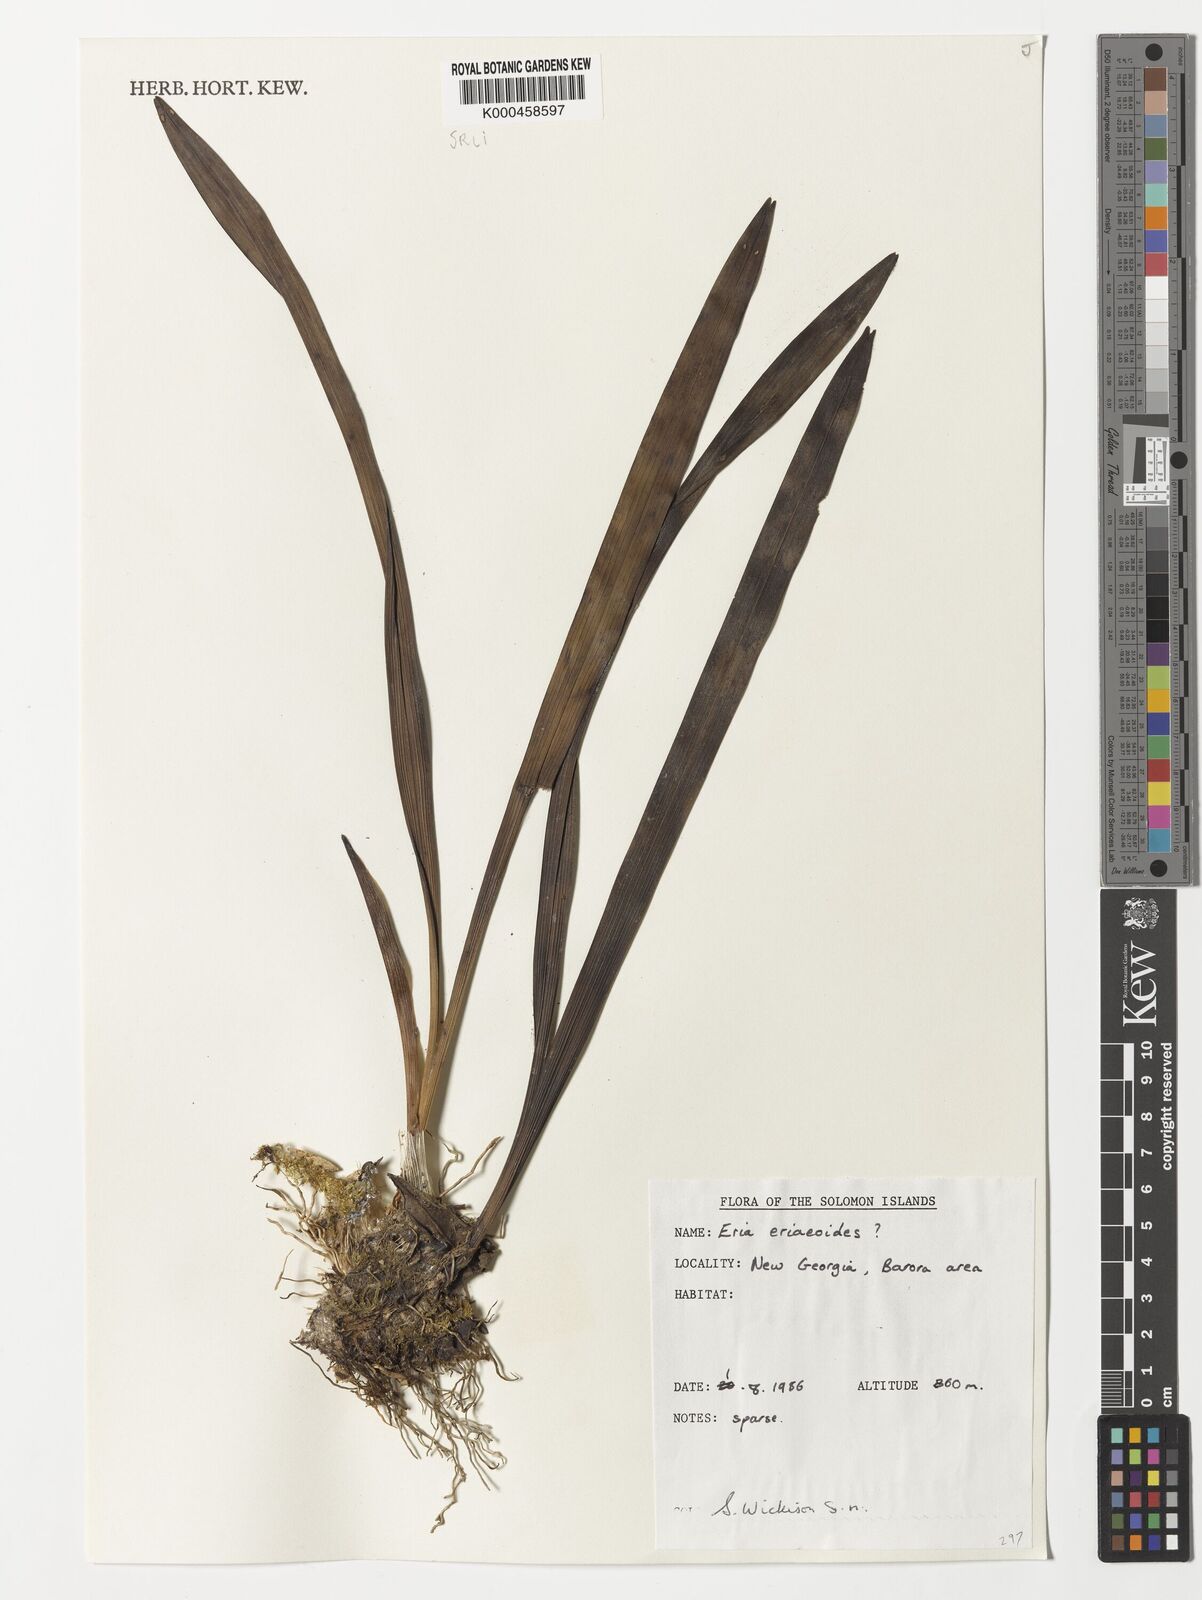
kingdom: Plantae
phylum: Tracheophyta
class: Liliopsida
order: Asparagales
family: Orchidaceae
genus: Bryobium
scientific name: Bryobium eriaeoides
